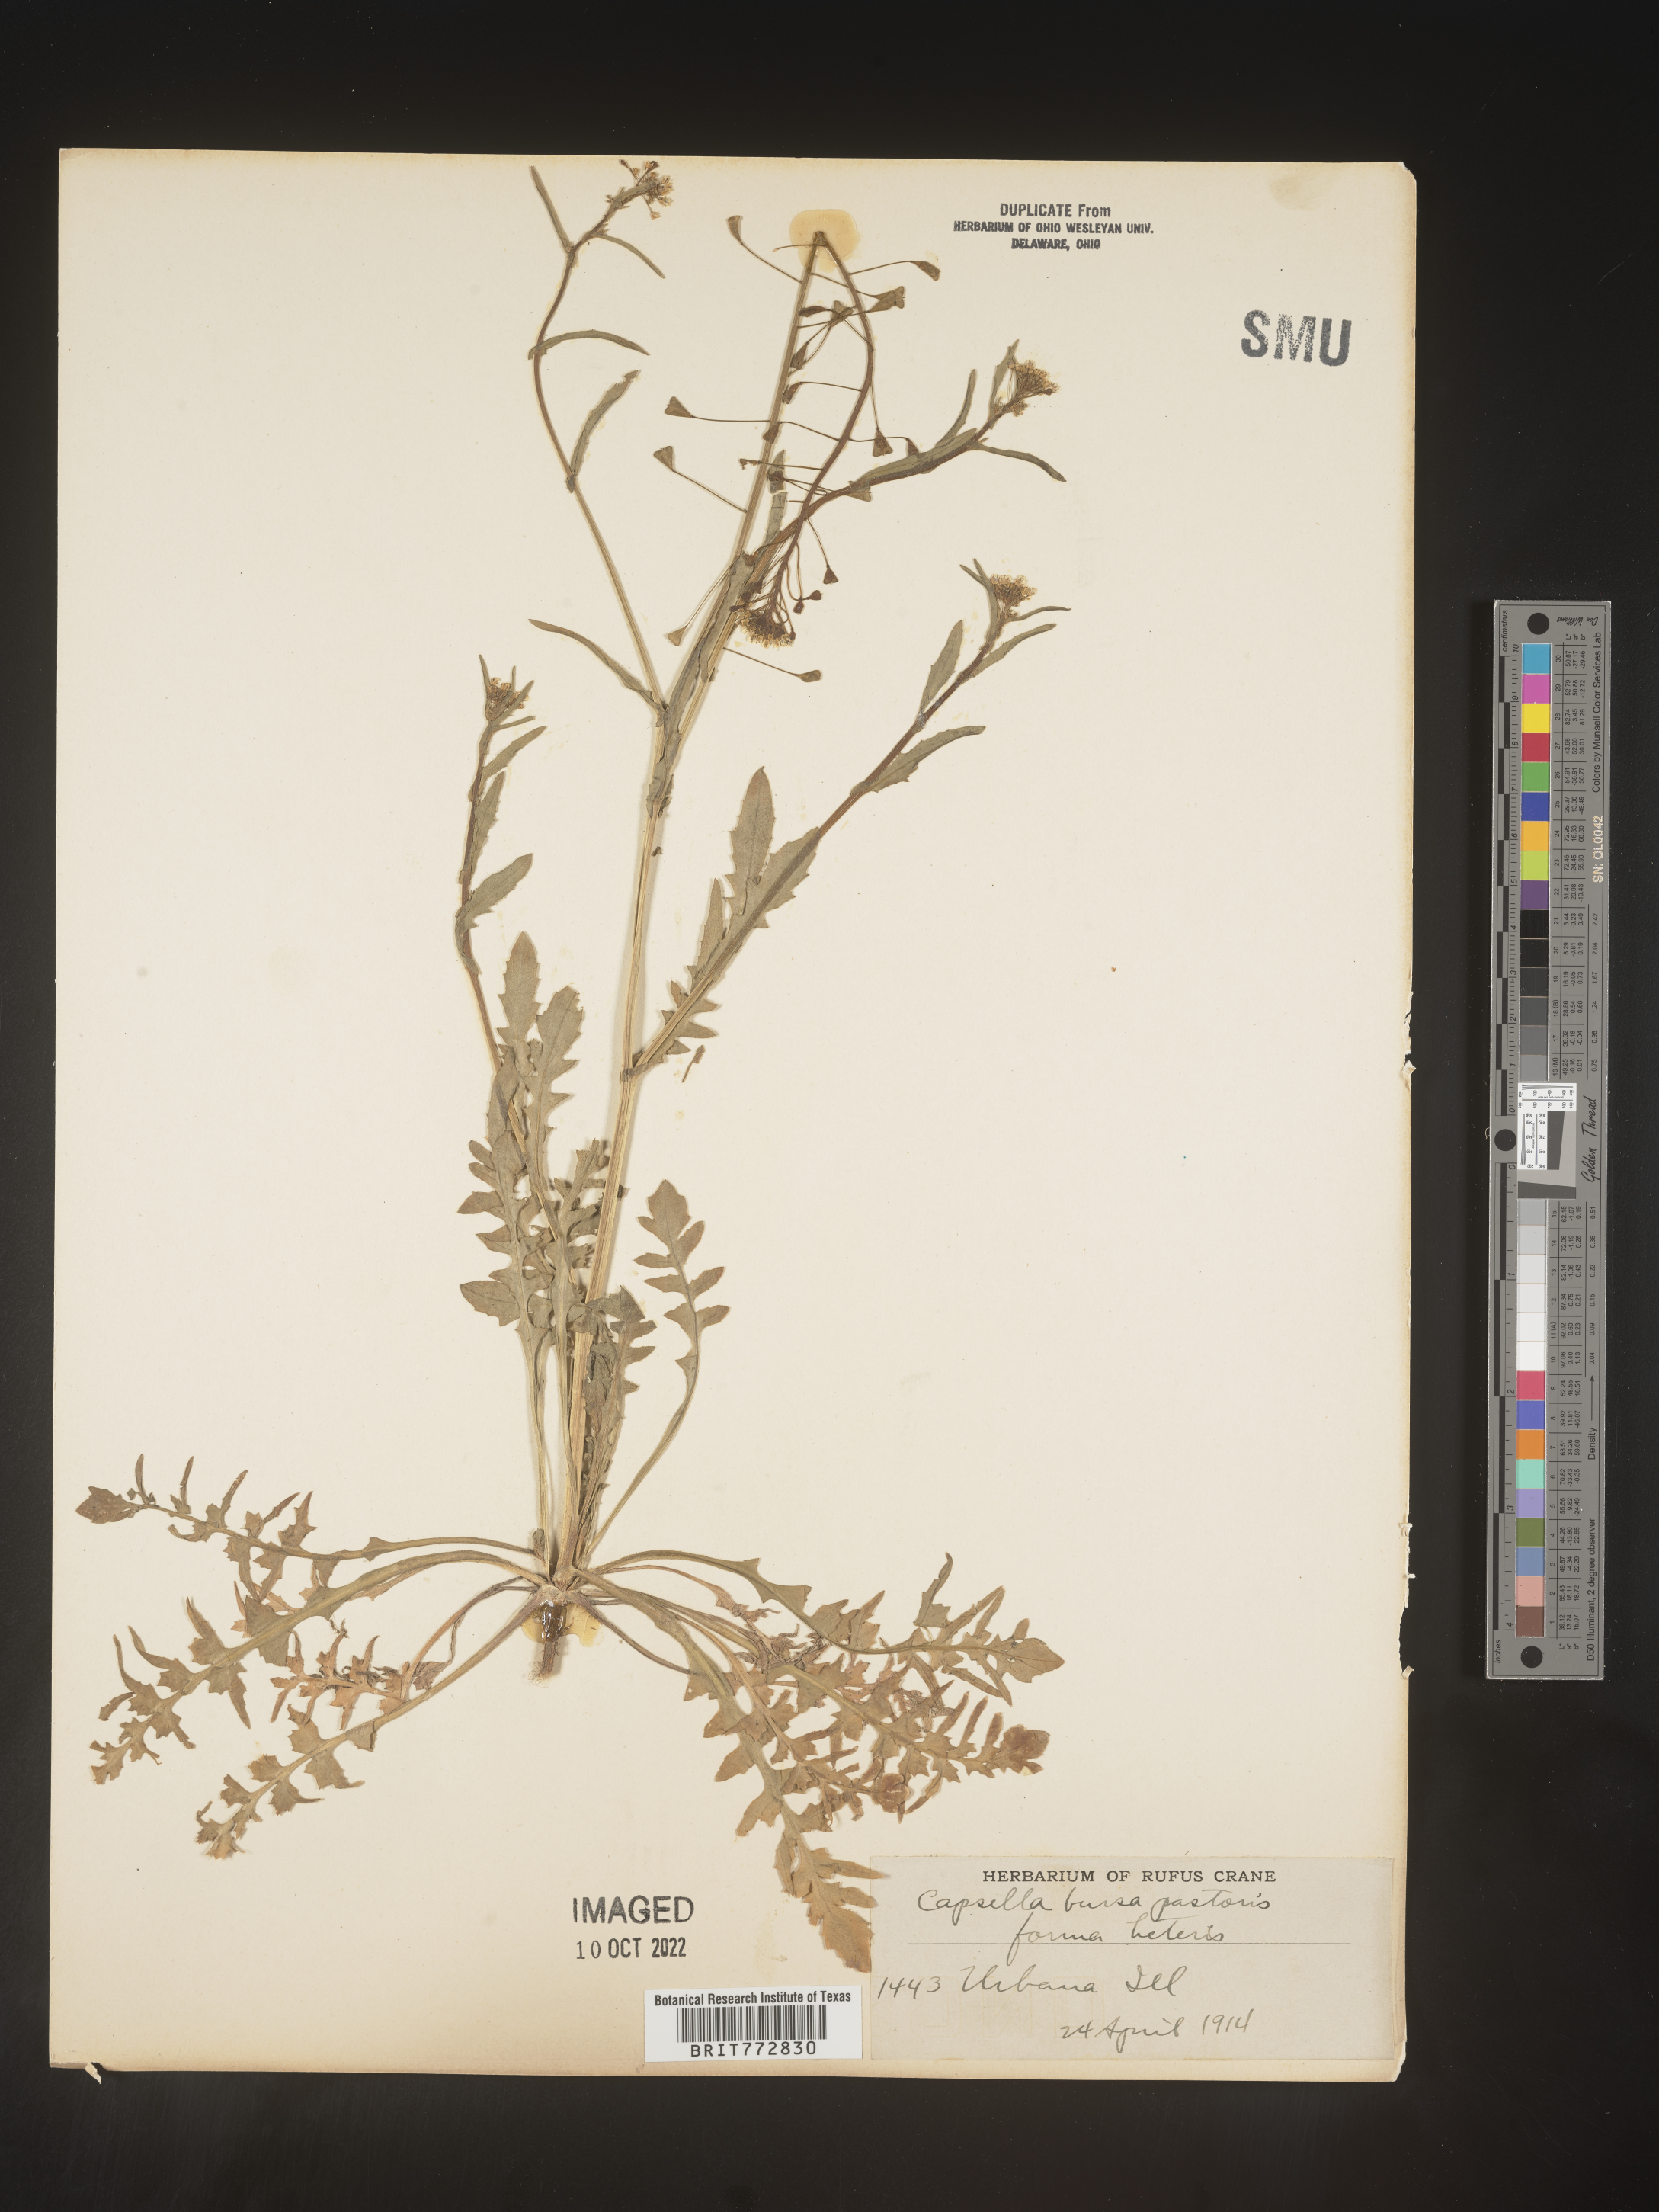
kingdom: Plantae
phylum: Tracheophyta
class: Magnoliopsida
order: Brassicales
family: Brassicaceae
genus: Capsella
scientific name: Capsella bursa-pastoris
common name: Shepherd's purse
